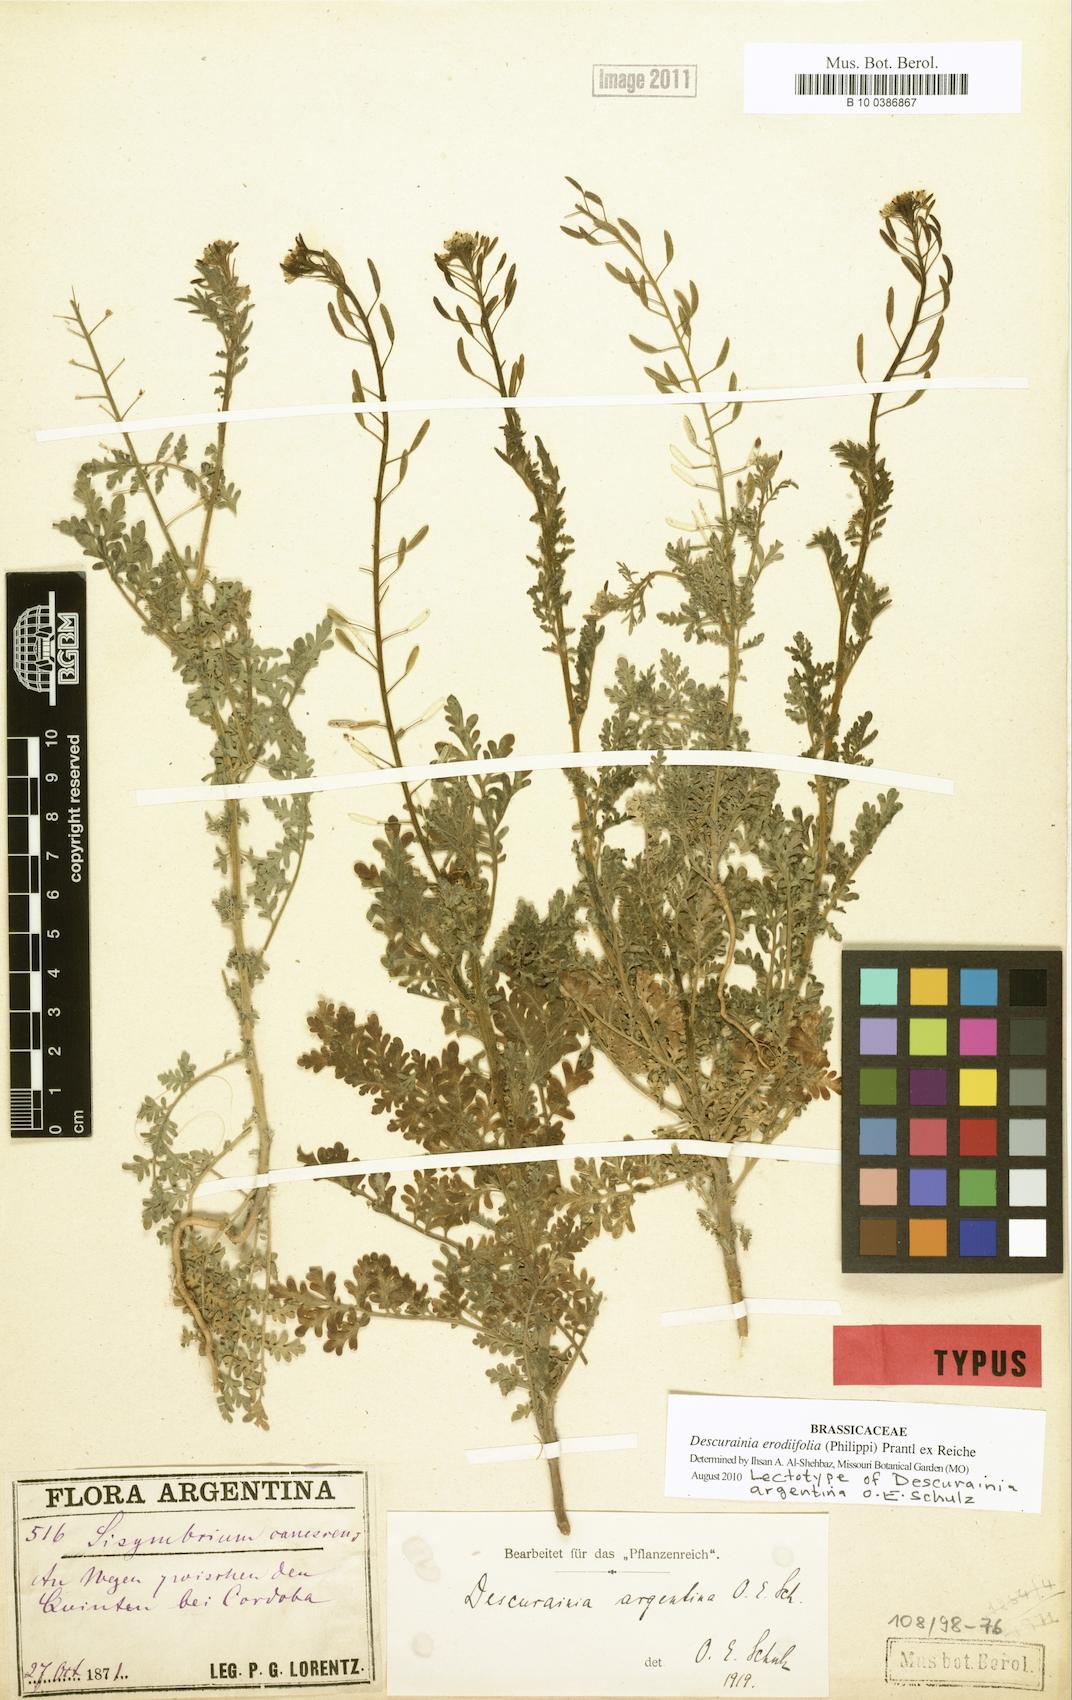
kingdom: Plantae
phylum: Tracheophyta
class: Magnoliopsida
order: Brassicales
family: Brassicaceae
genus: Descurainia
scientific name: Descurainia erodiifolia
